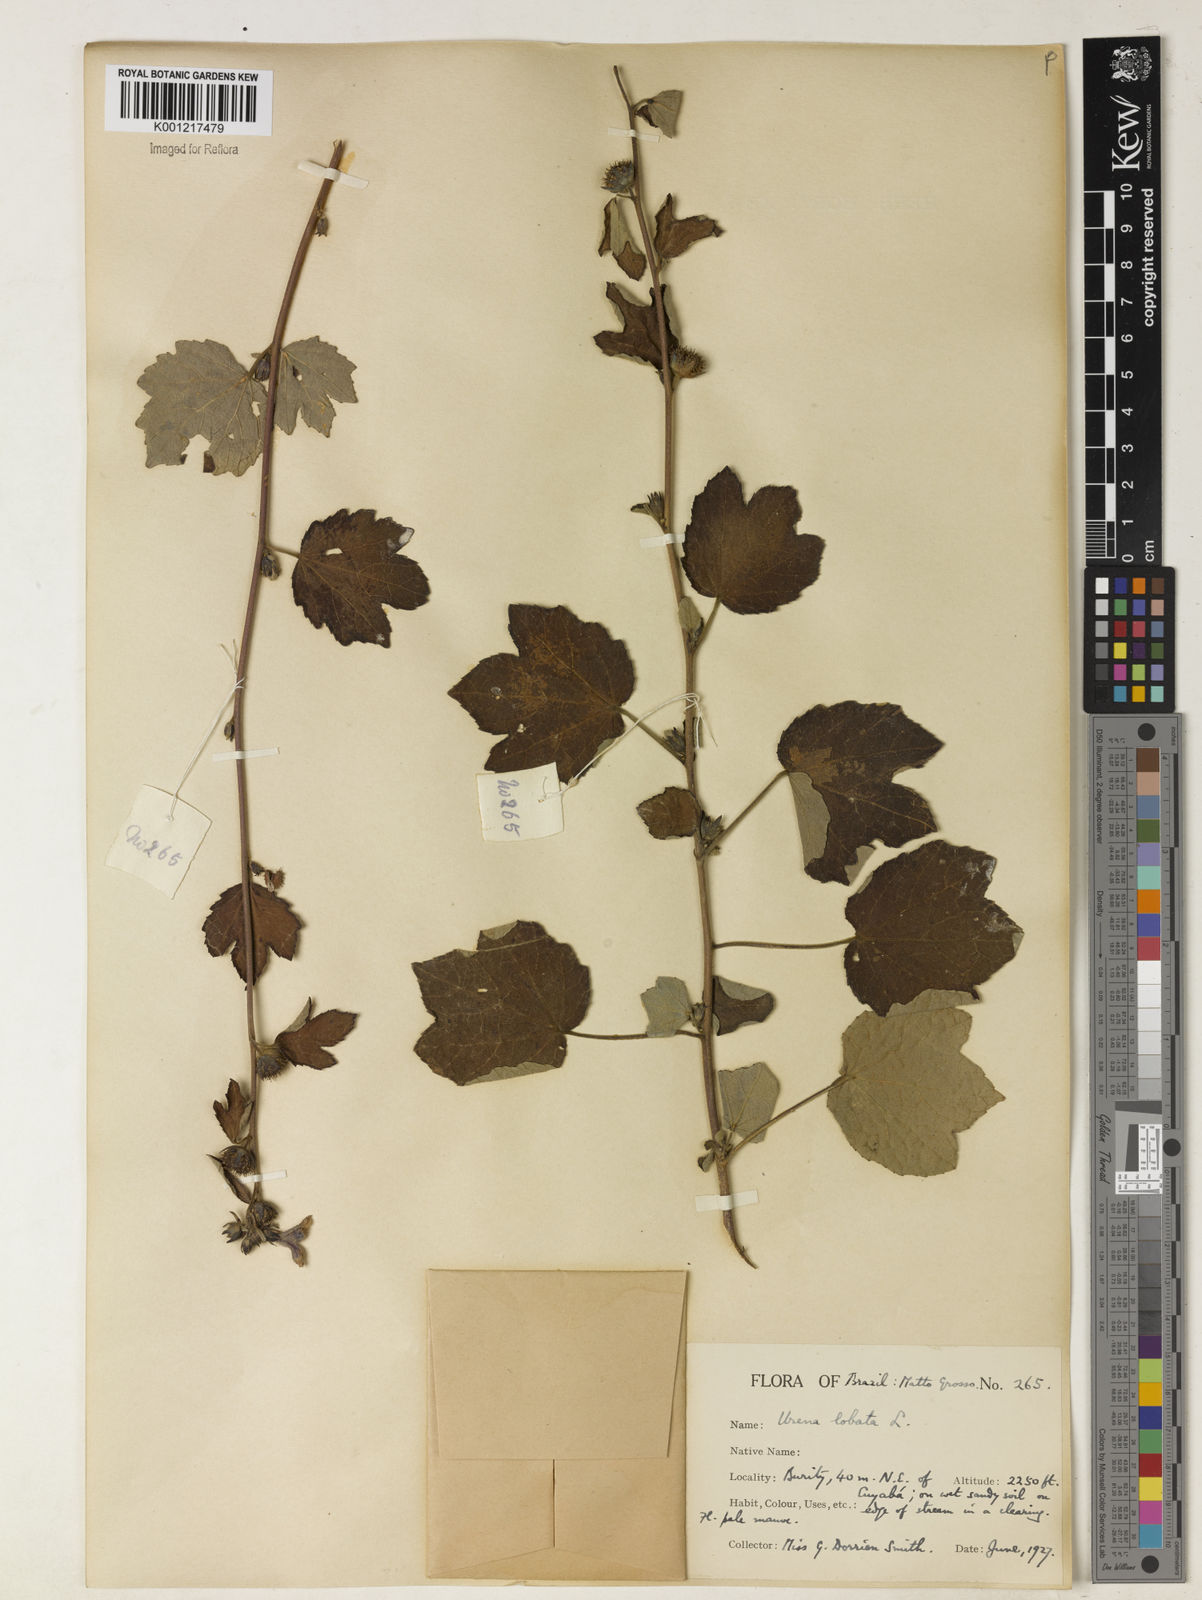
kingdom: Plantae
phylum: Tracheophyta
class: Magnoliopsida
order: Malvales
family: Malvaceae
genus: Urena
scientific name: Urena lobata
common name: Caesarweed
